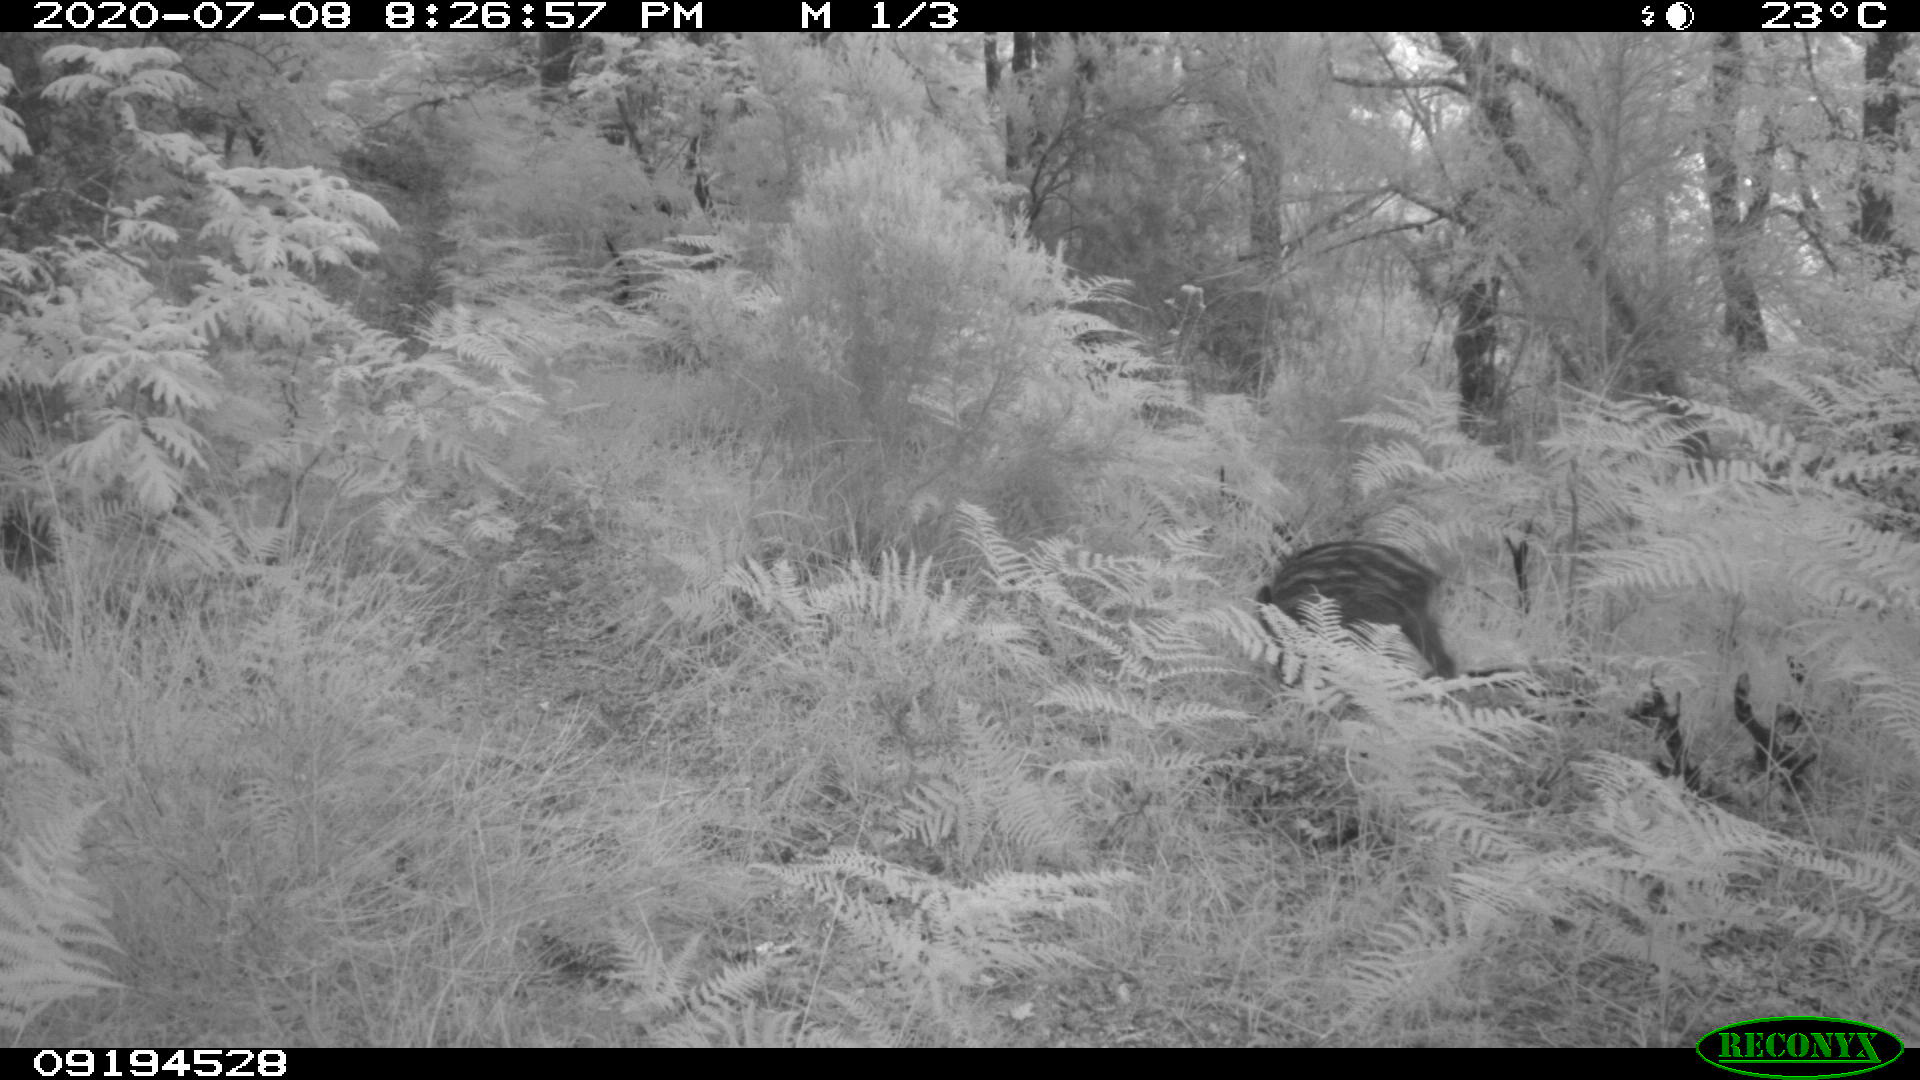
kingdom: Animalia
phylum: Chordata
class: Mammalia
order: Artiodactyla
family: Suidae
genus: Sus
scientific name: Sus scrofa
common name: Wild boar
